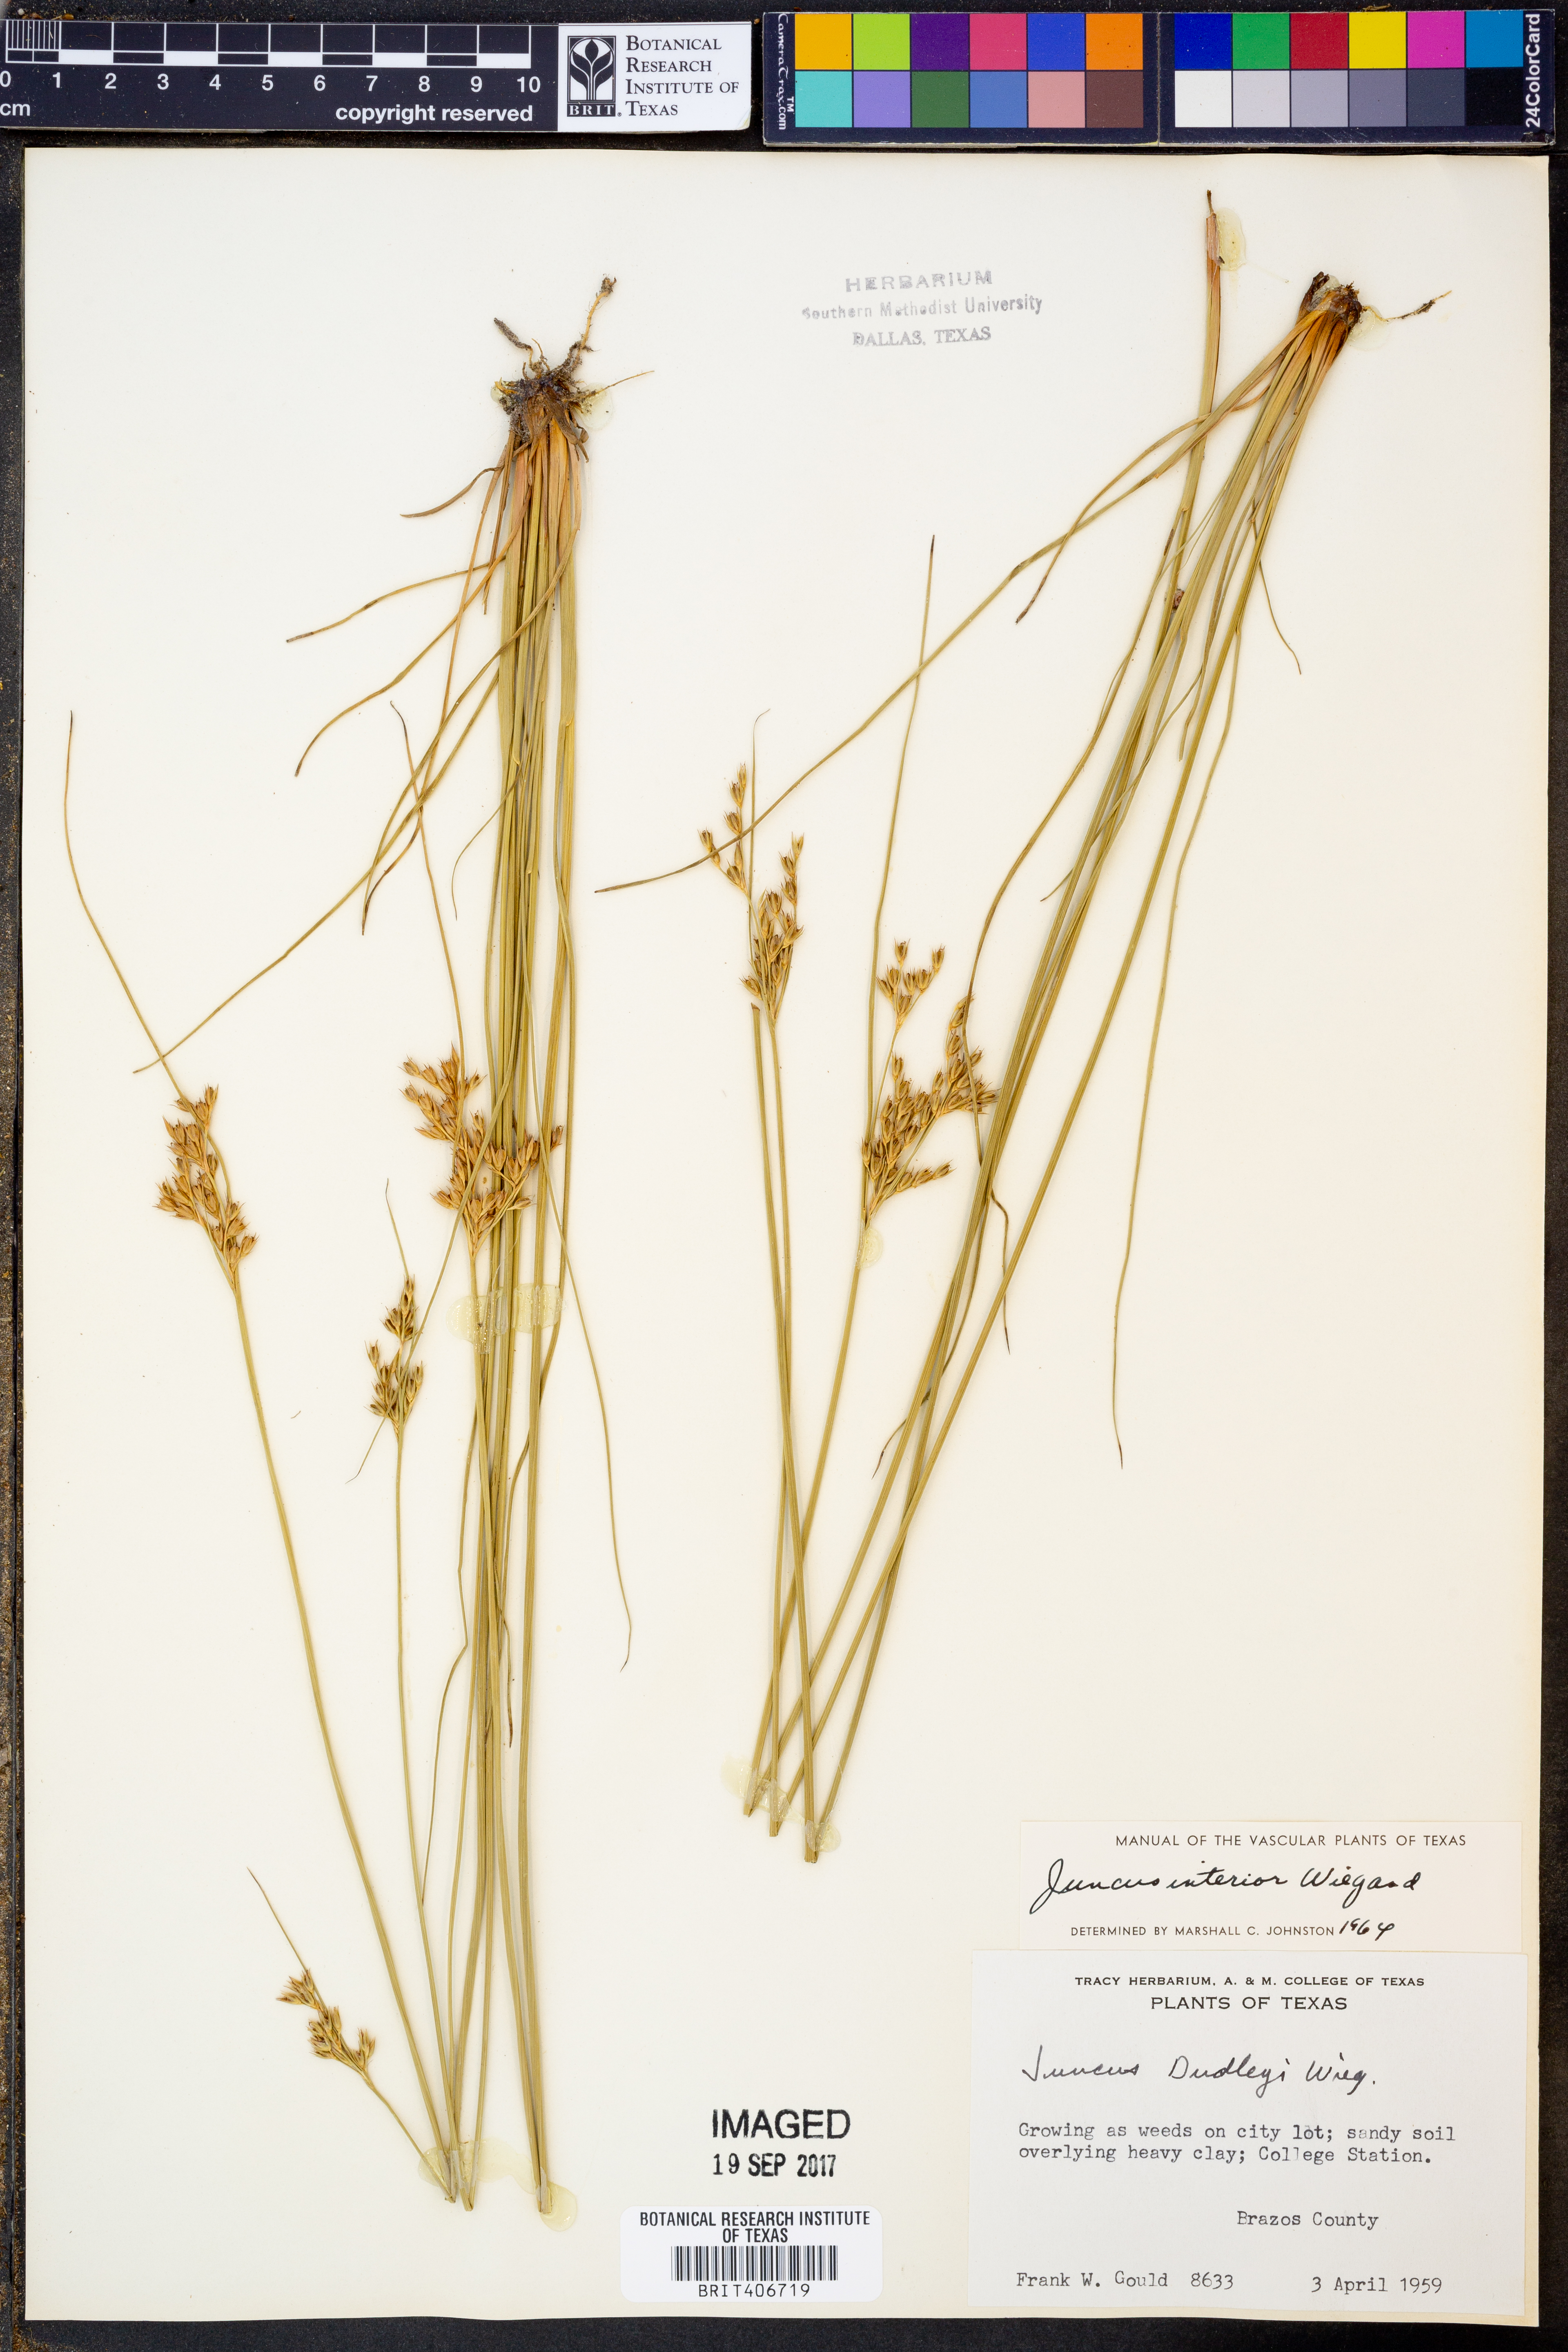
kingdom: Plantae
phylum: Tracheophyta
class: Liliopsida
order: Poales
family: Juncaceae
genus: Juncus
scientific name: Juncus interior
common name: Interior rush
